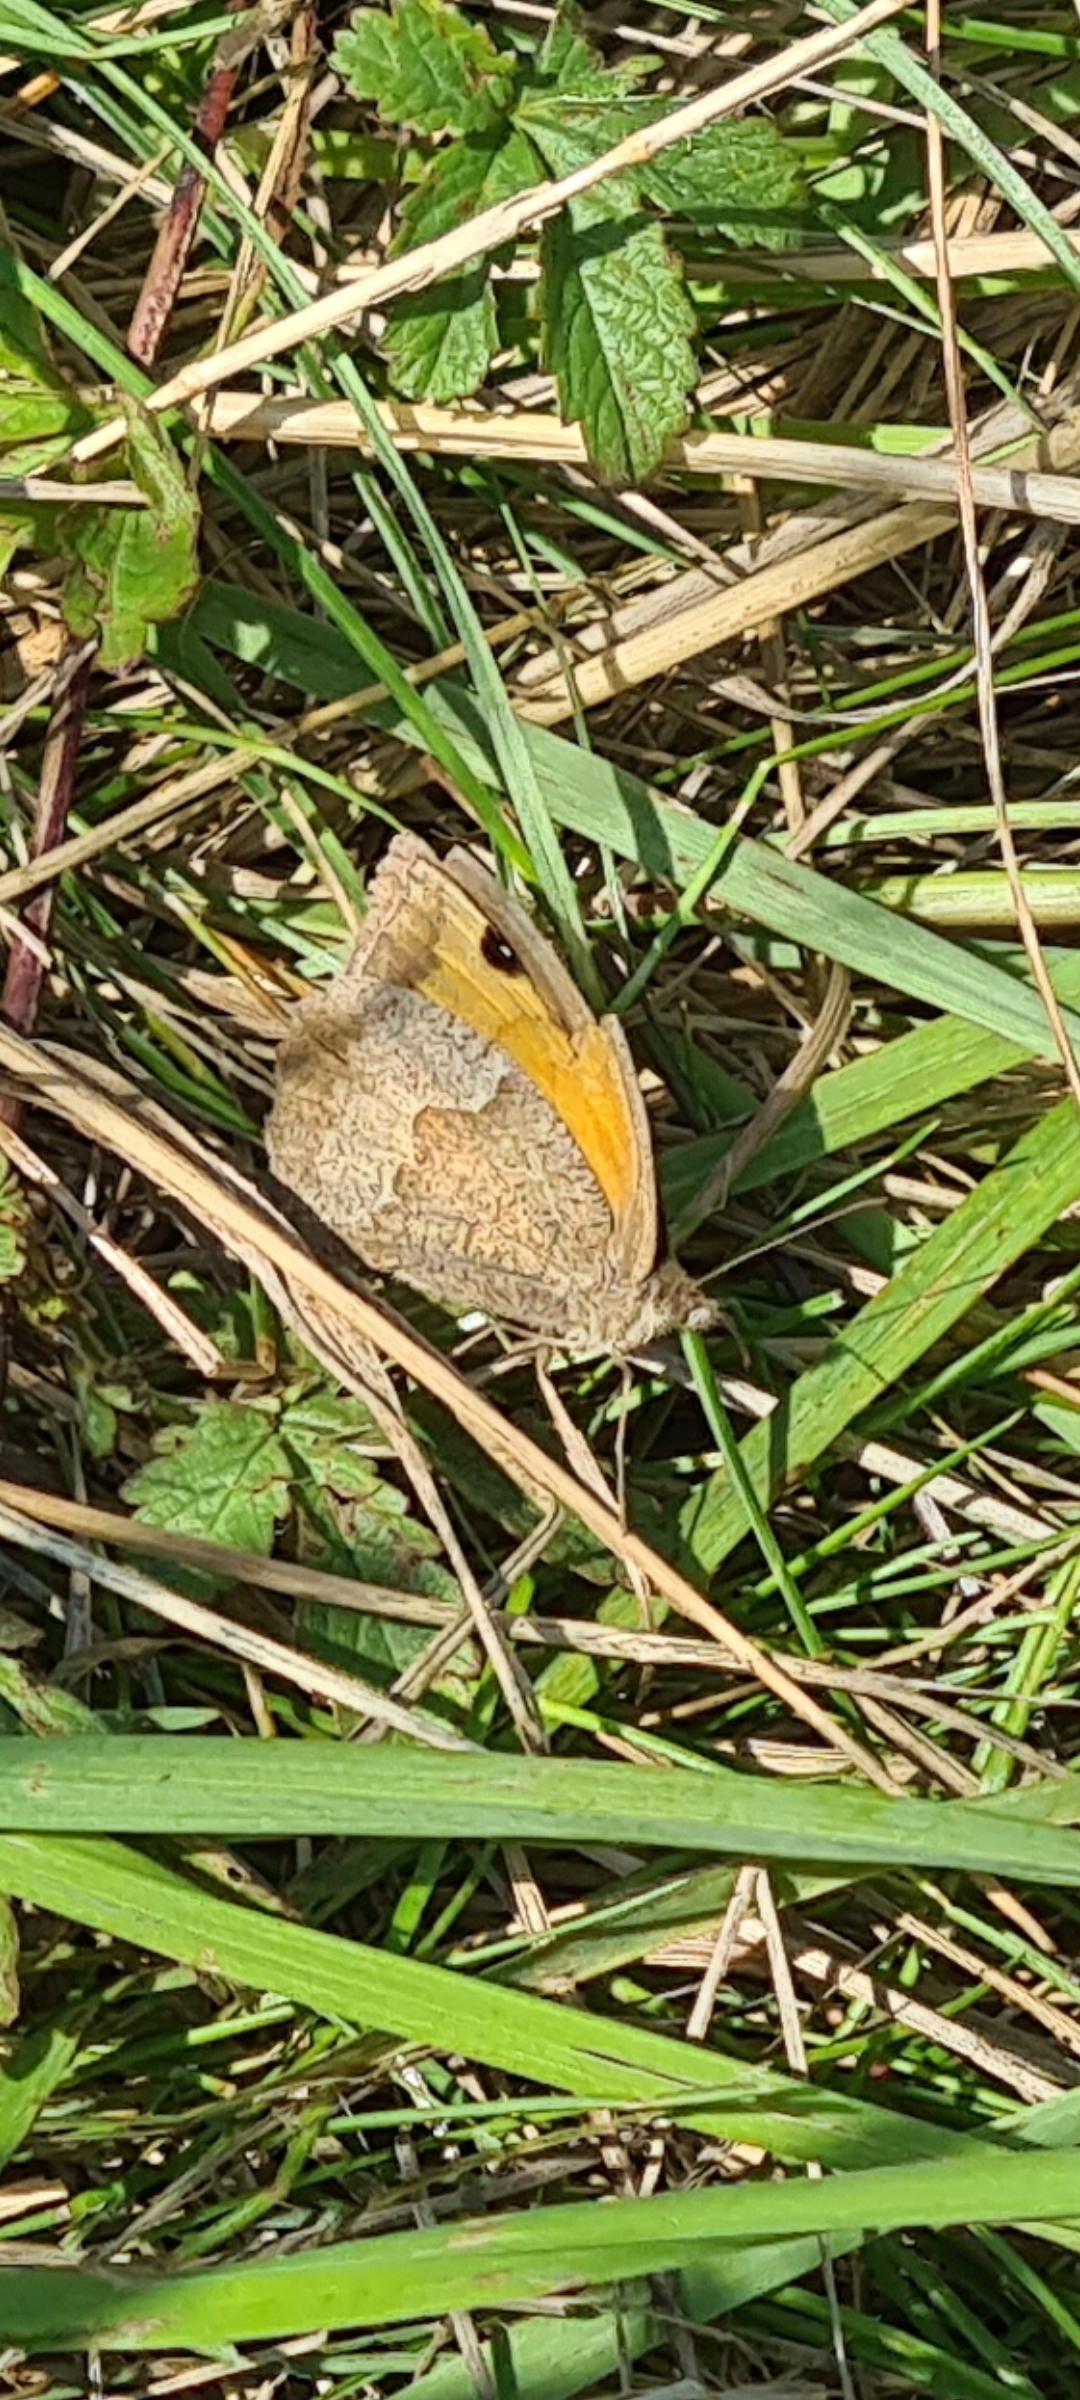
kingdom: Animalia
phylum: Arthropoda
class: Insecta
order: Lepidoptera
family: Nymphalidae
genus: Maniola
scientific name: Maniola jurtina
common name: Græsrandøje
